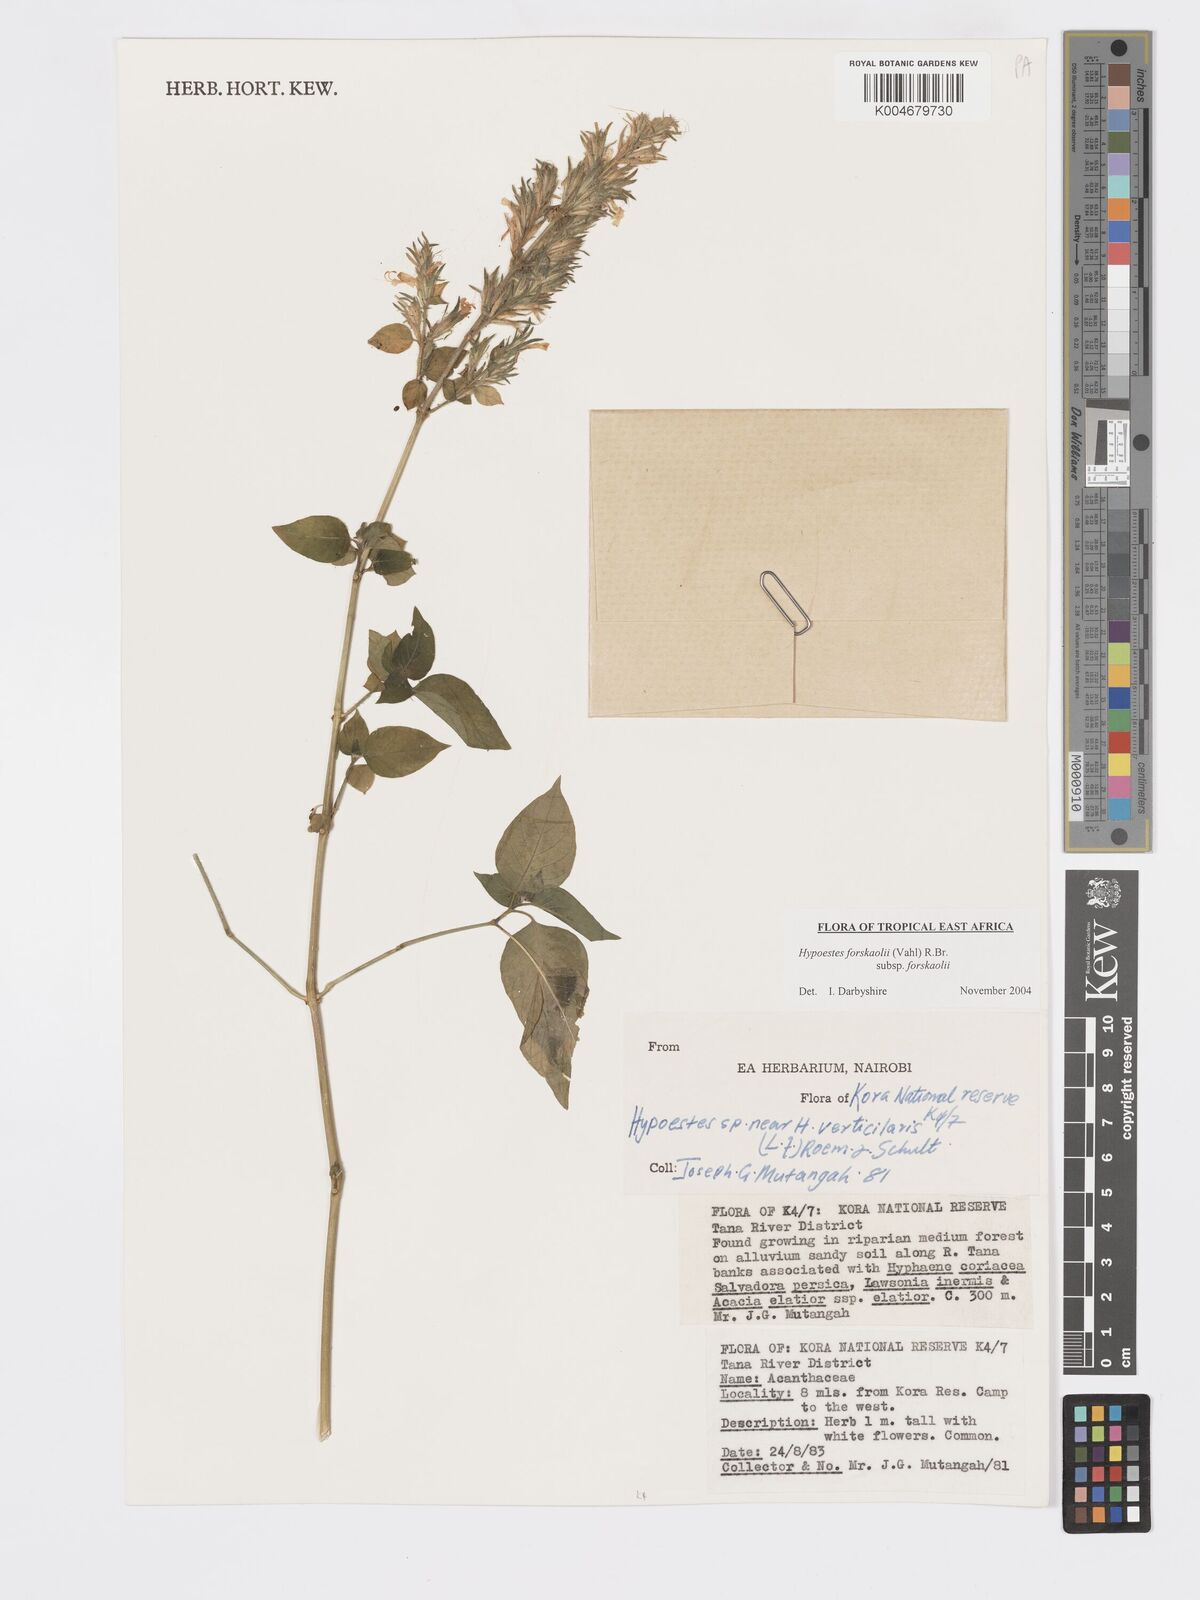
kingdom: Plantae
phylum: Tracheophyta
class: Magnoliopsida
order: Lamiales
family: Acanthaceae
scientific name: Acanthaceae
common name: Acanthaceae
